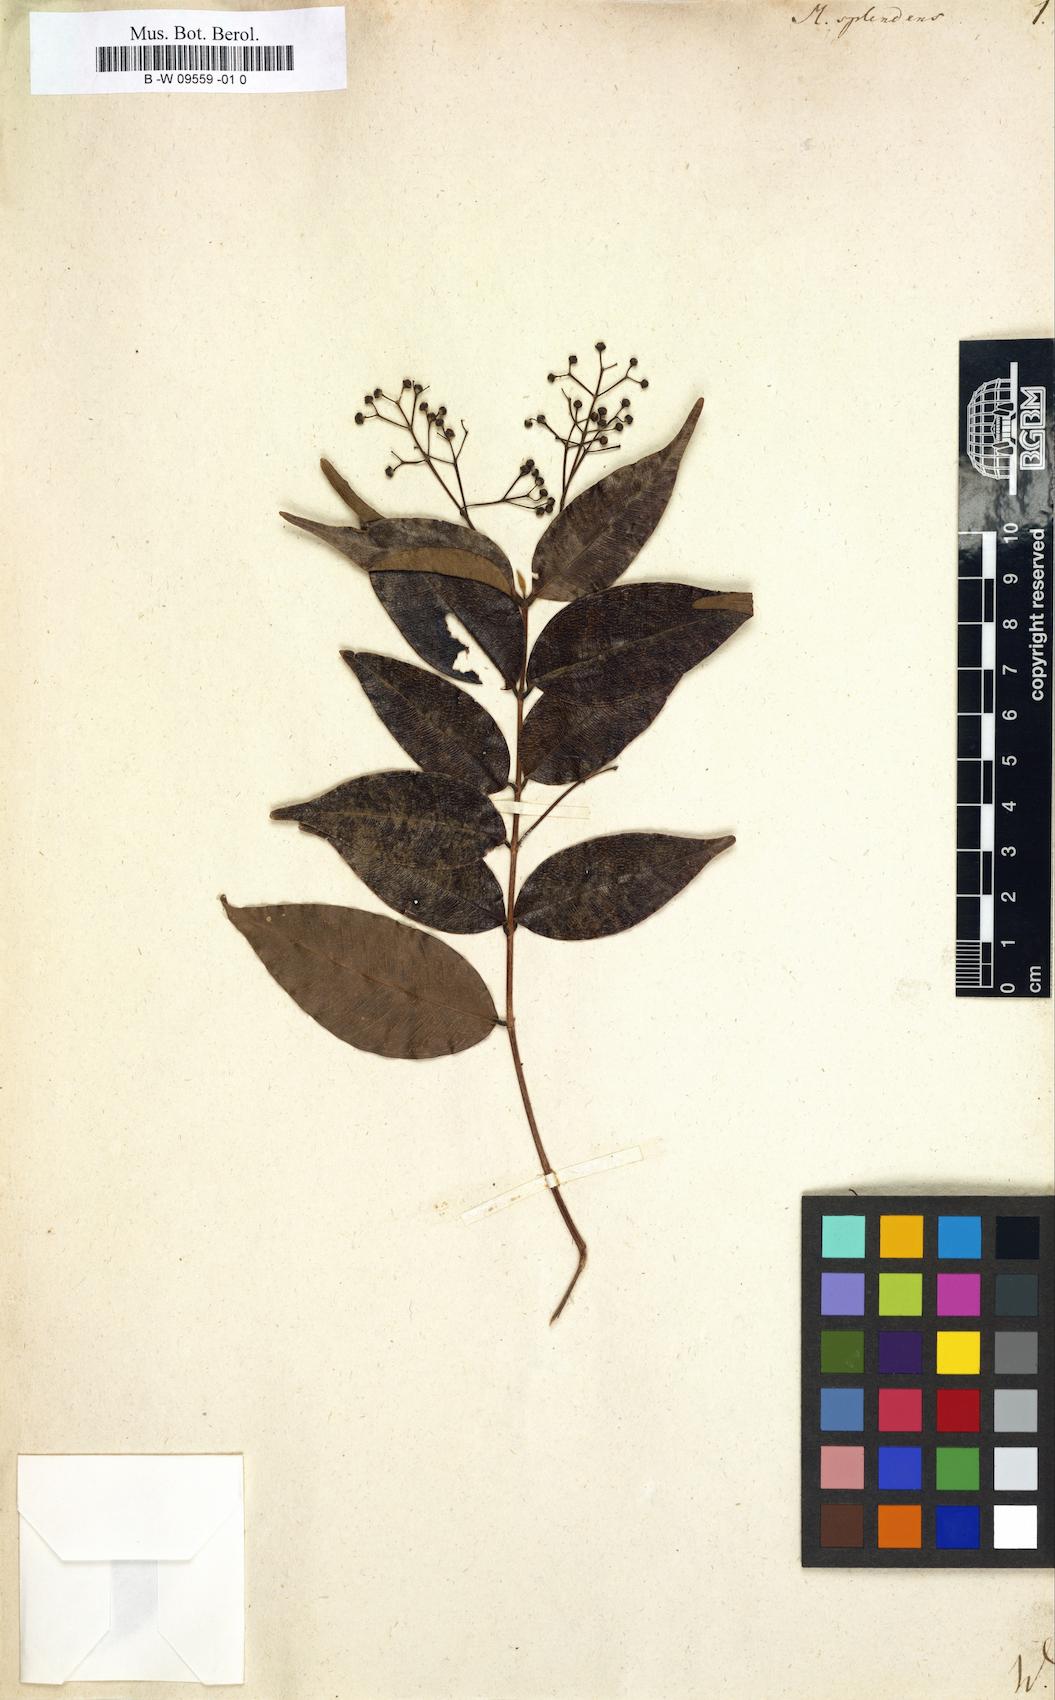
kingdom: Plantae
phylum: Tracheophyta
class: Magnoliopsida
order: Myrtales
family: Myrtaceae
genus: Myrcia
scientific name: Myrcia splendens
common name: Surinam cherry
